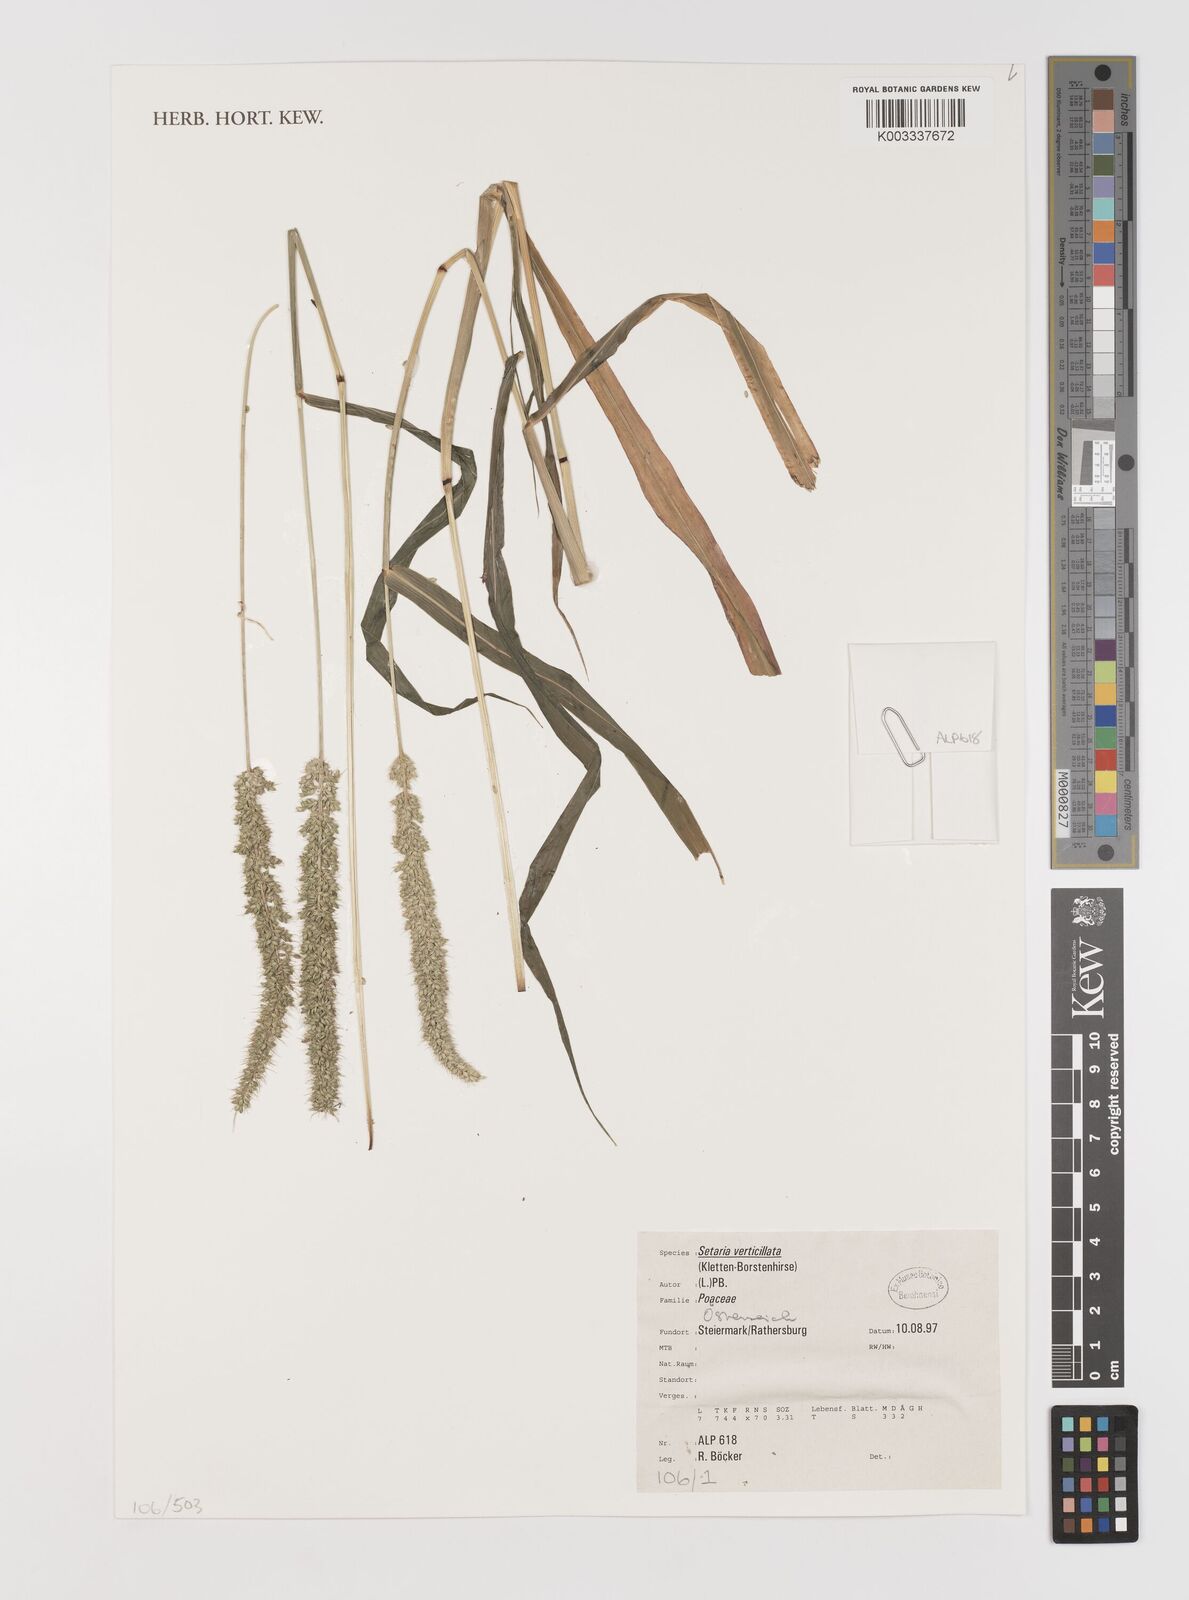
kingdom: Plantae
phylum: Tracheophyta
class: Liliopsida
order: Poales
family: Poaceae
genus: Setaria
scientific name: Setaria verticillata
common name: Hooked bristlegrass
